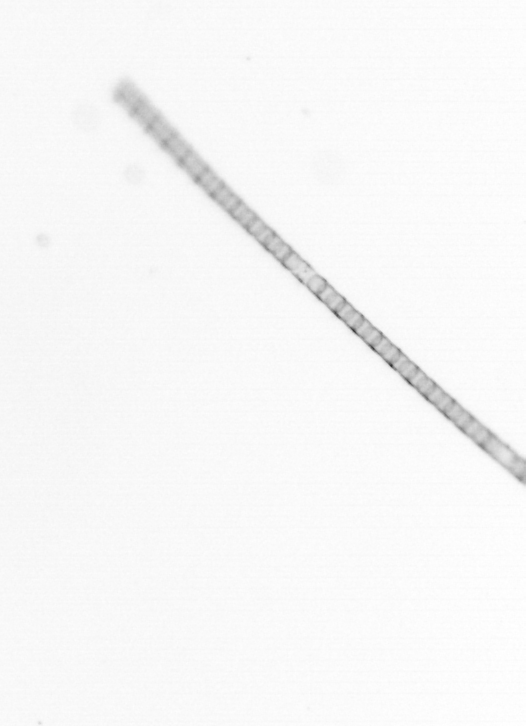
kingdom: Chromista
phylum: Ochrophyta
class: Bacillariophyceae
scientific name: Bacillariophyceae
